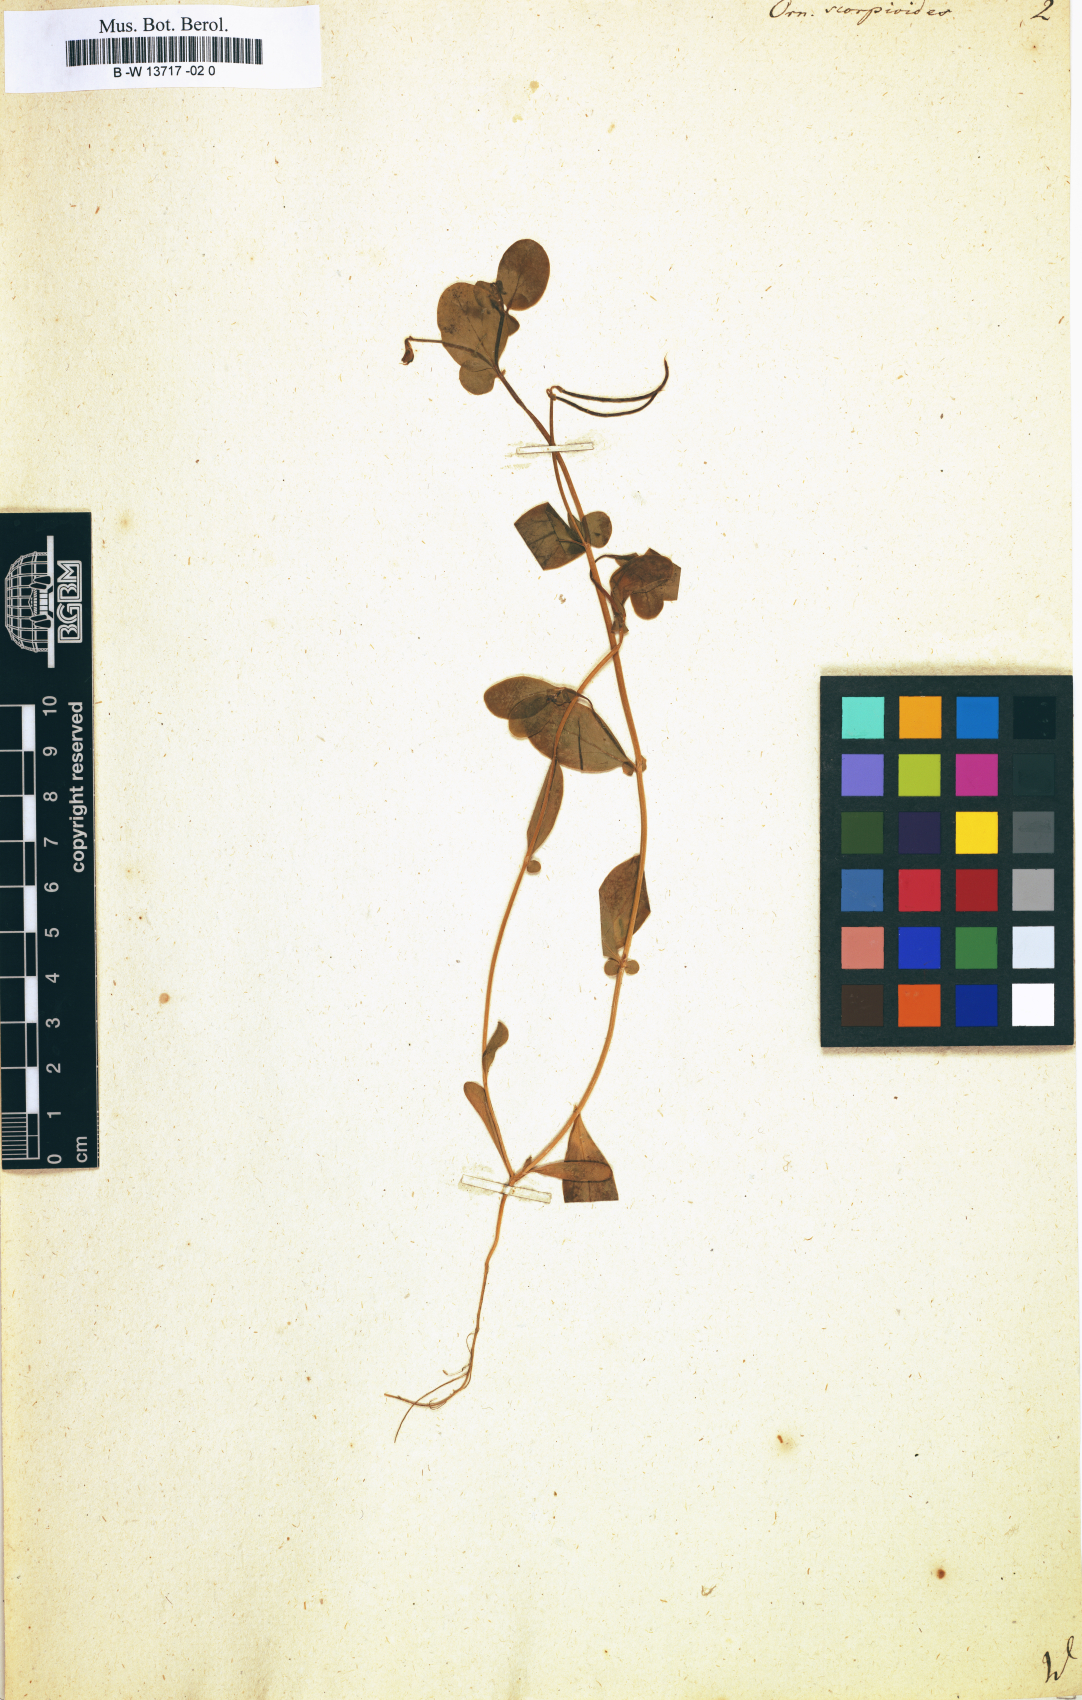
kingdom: Plantae
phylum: Tracheophyta
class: Magnoliopsida
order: Fabales
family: Fabaceae
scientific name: Fabaceae
